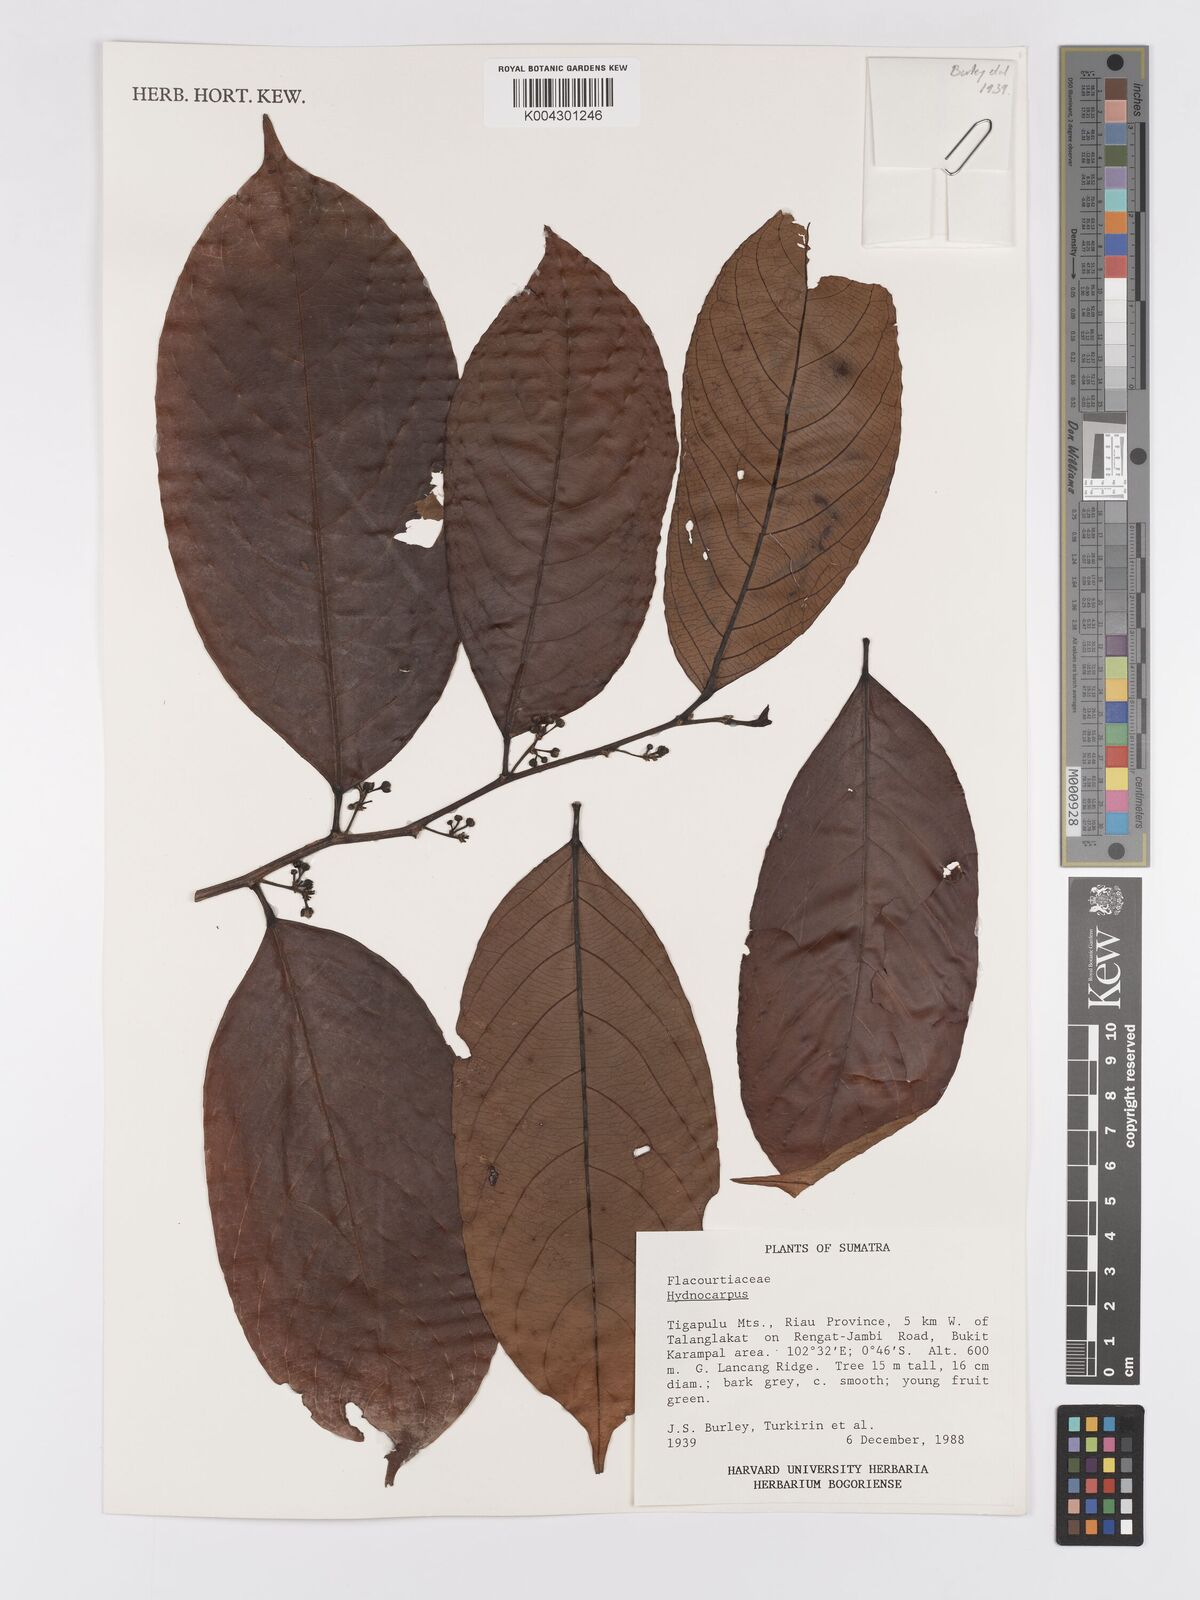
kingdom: Plantae
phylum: Tracheophyta
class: Magnoliopsida
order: Malpighiales
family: Achariaceae
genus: Hydnocarpus
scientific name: Hydnocarpus
